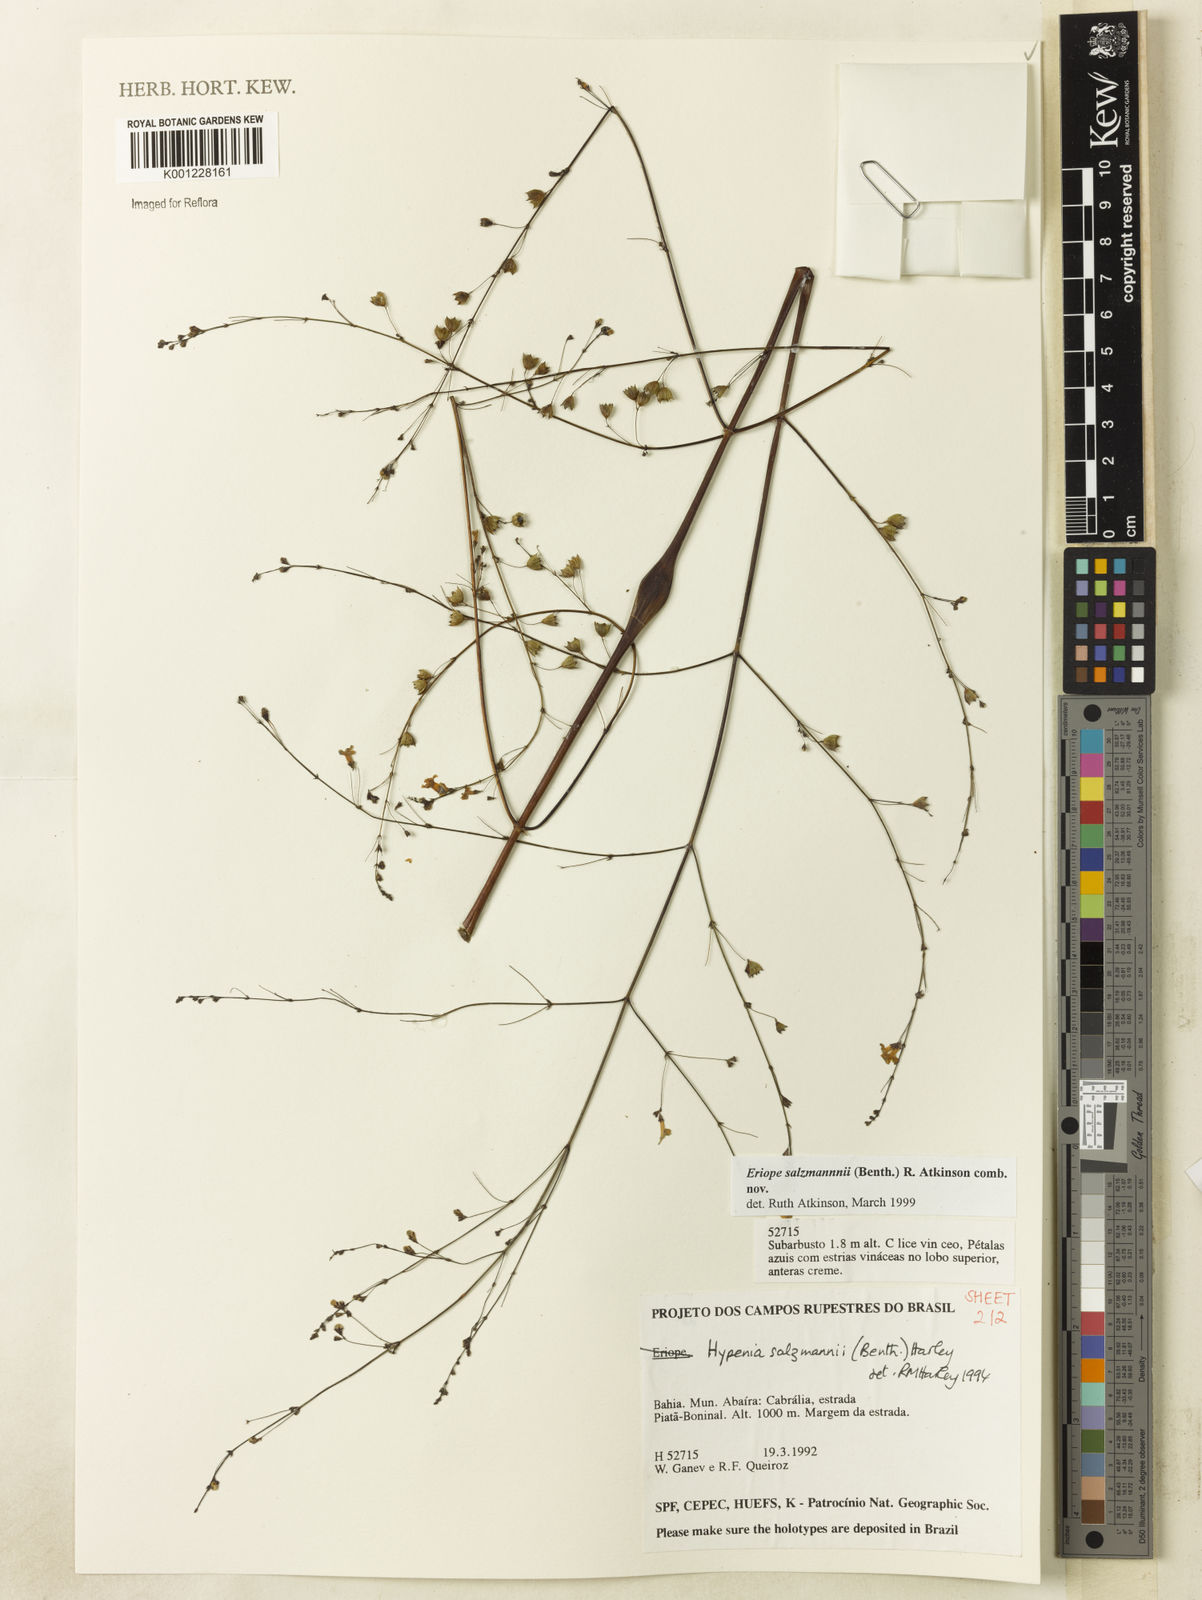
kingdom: Plantae
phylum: Tracheophyta
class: Magnoliopsida
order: Lamiales
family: Lamiaceae
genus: Hypenia
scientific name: Hypenia salzmannii
